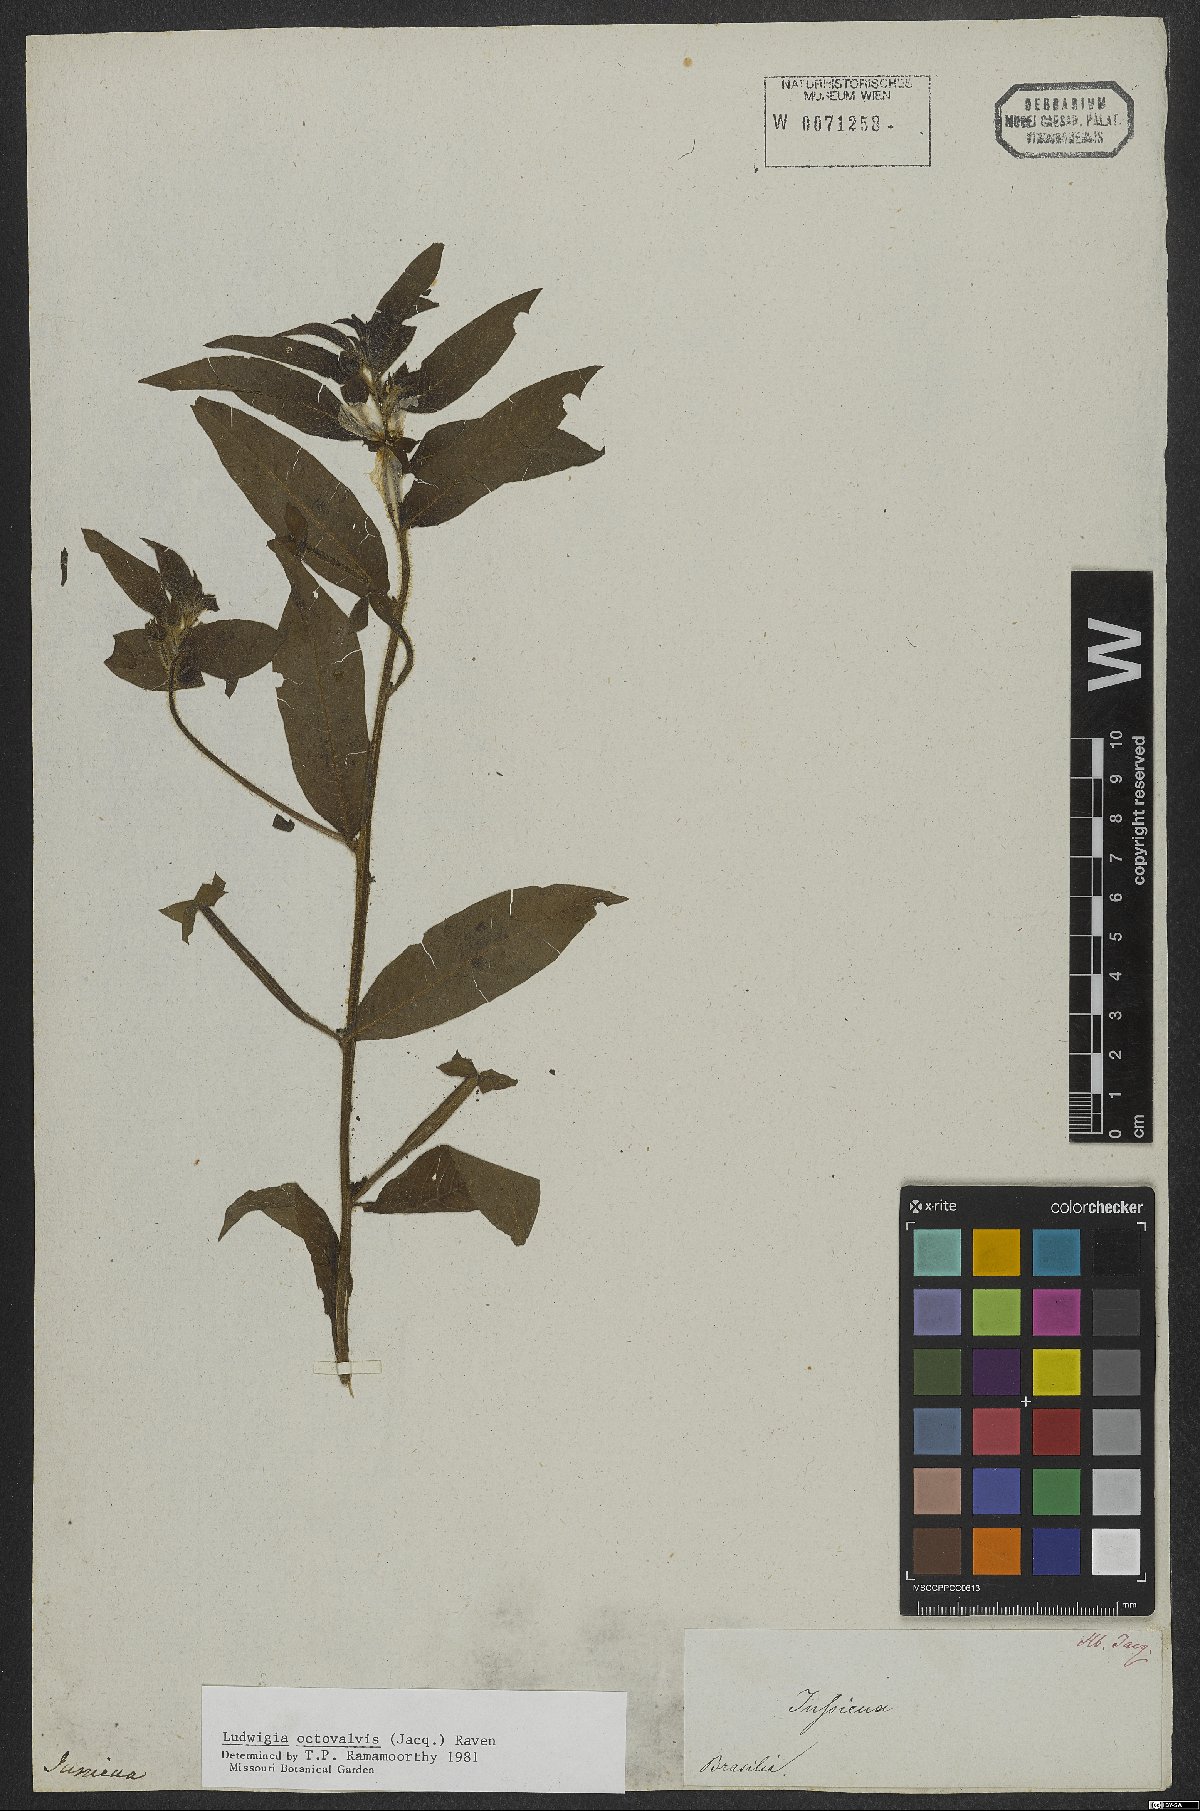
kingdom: Plantae
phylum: Tracheophyta
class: Magnoliopsida
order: Myrtales
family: Onagraceae
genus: Ludwigia
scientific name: Ludwigia octovalvis
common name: Water-primrose
